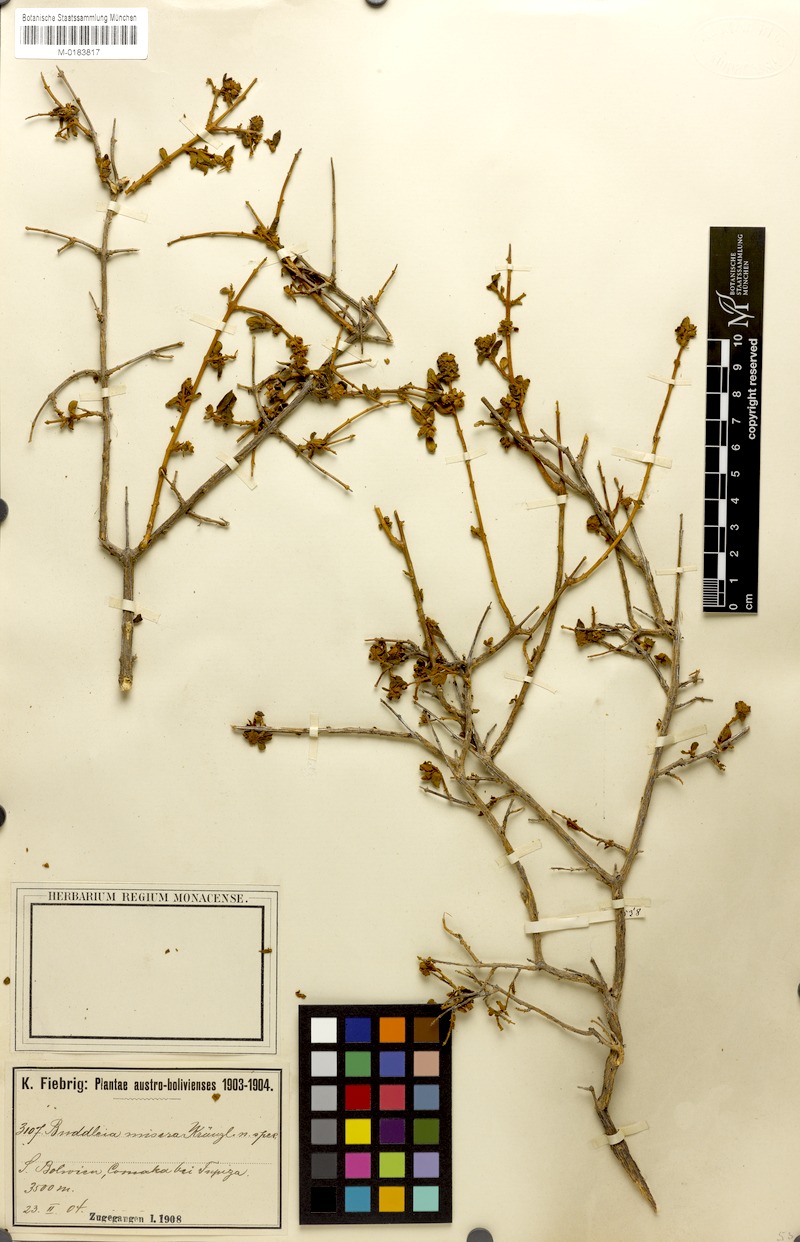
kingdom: Plantae
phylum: Tracheophyta
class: Magnoliopsida
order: Lamiales
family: Scrophulariaceae
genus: Buddleja
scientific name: Buddleja hieronymi
